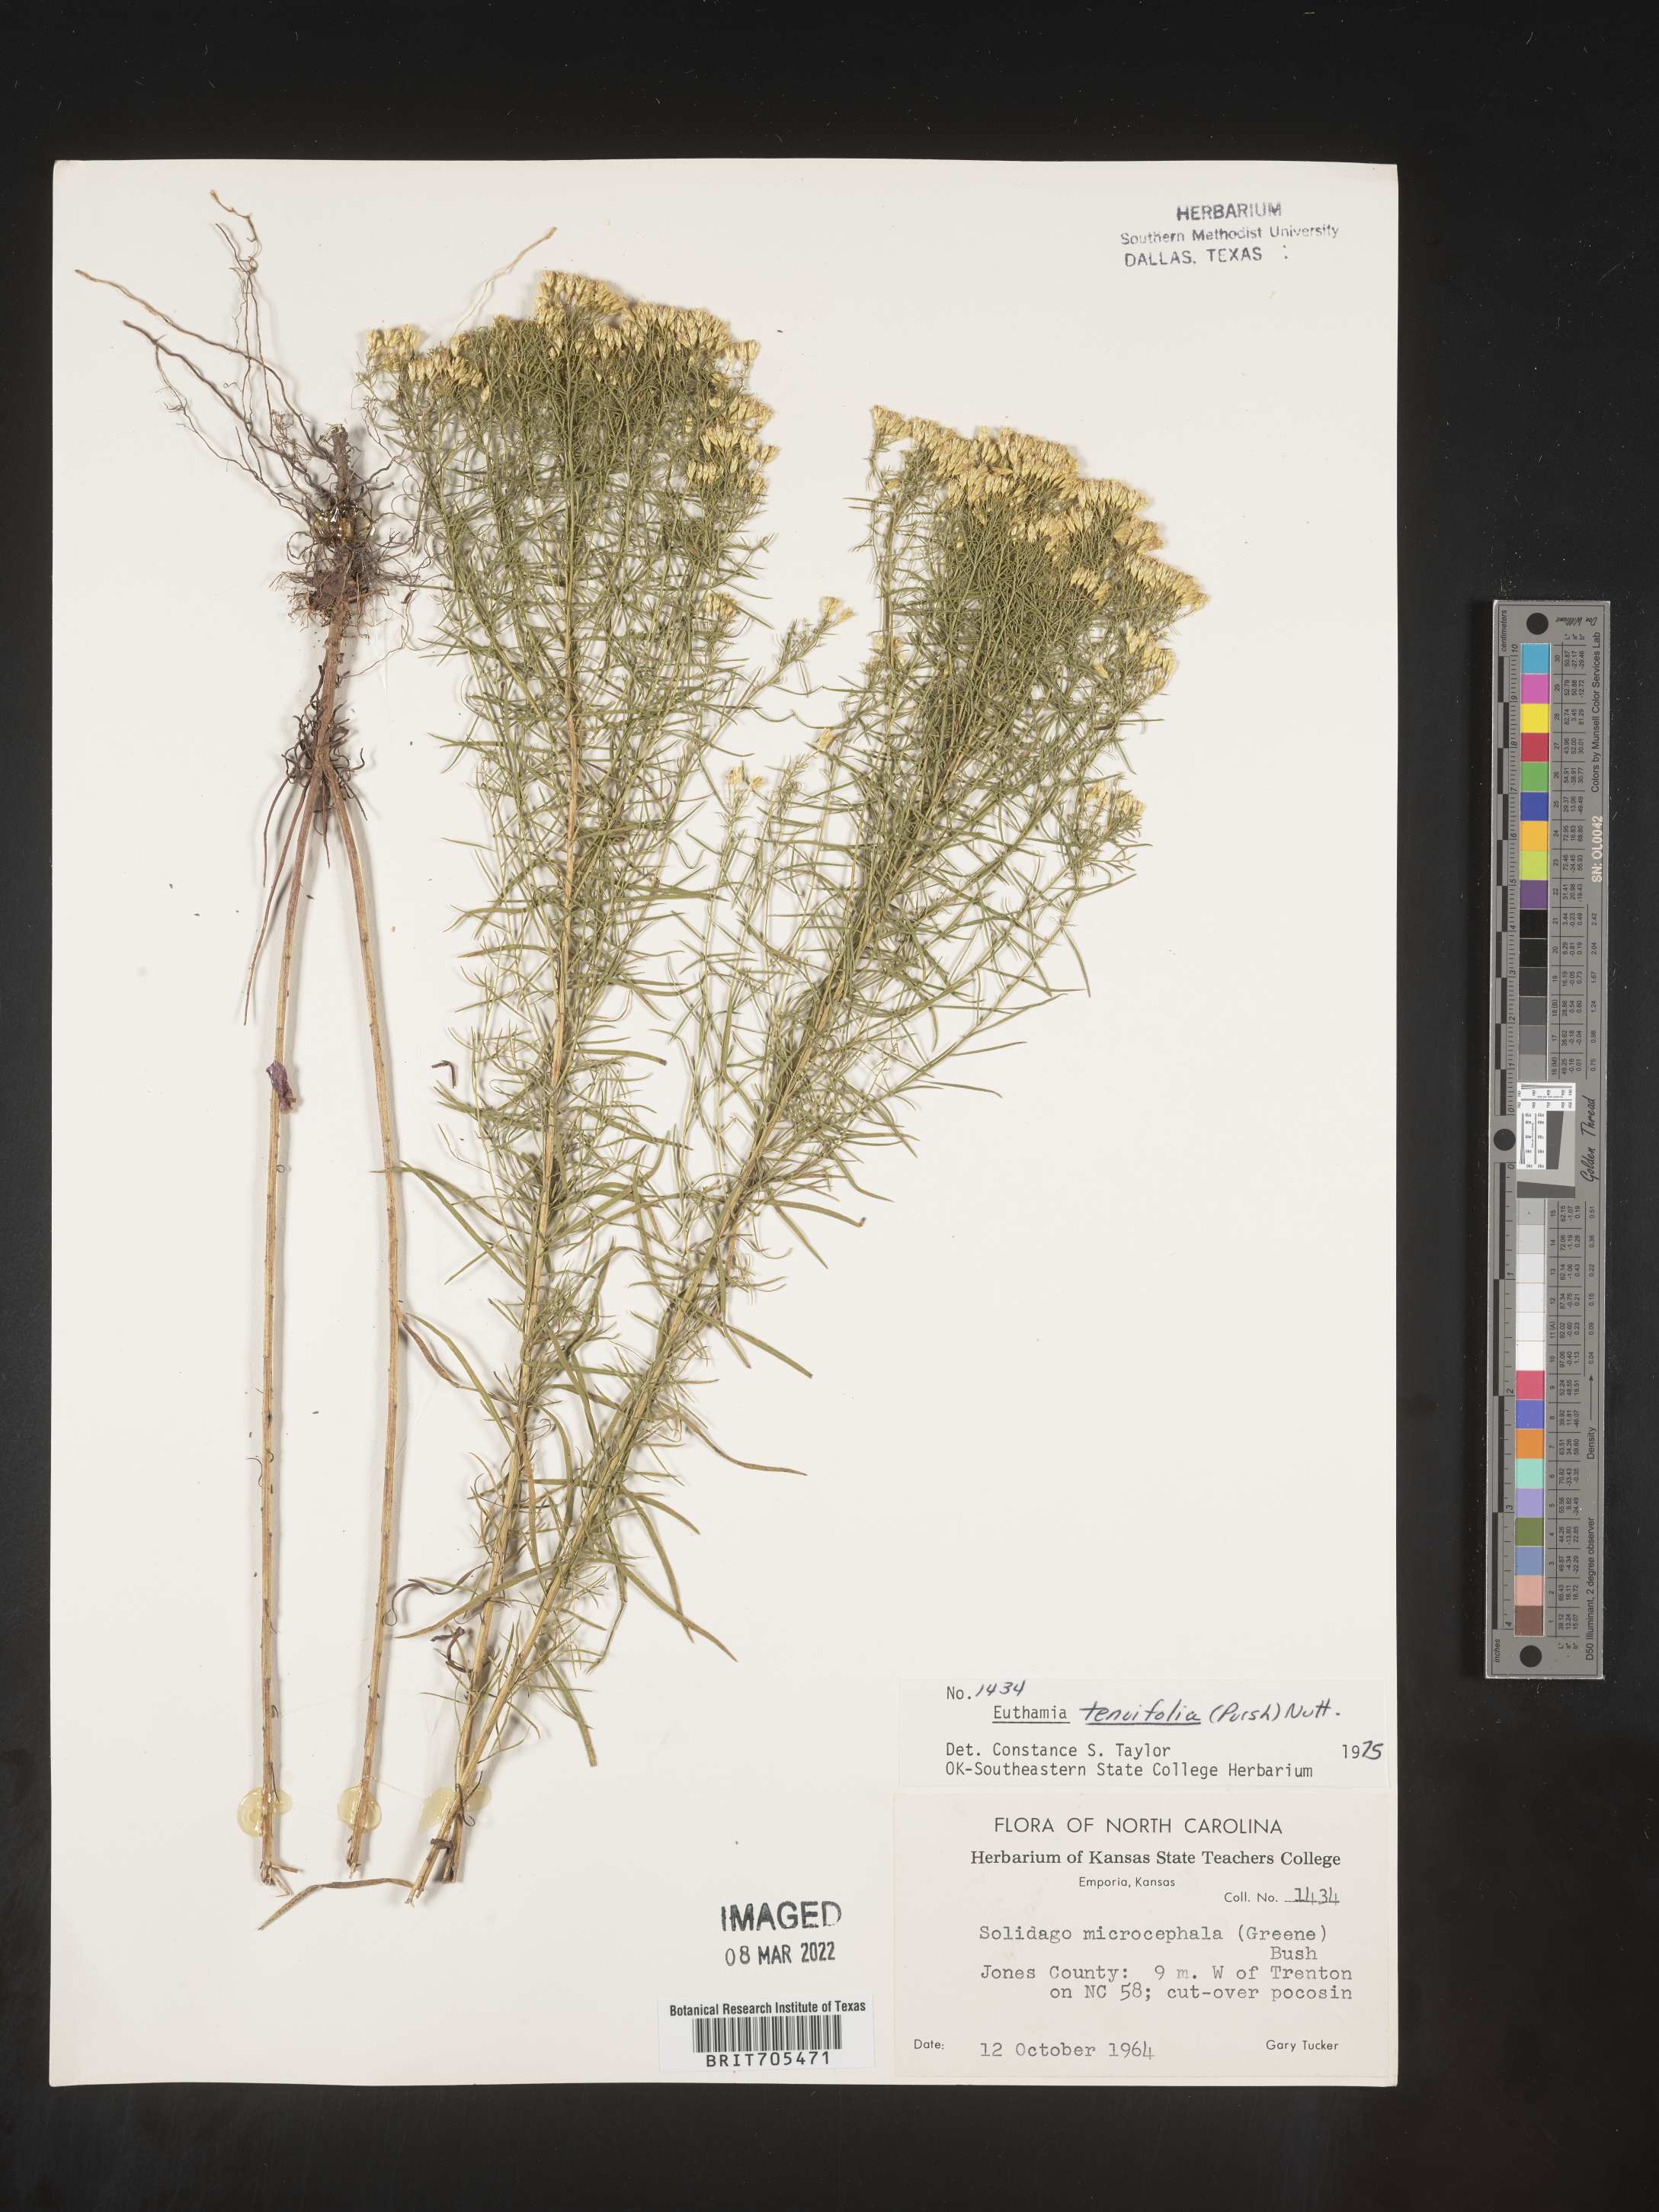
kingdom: Plantae
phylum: Tracheophyta
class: Magnoliopsida
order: Asterales
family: Asteraceae
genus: Euthamia
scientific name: Euthamia caroliniana
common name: Coastal plain goldentop
